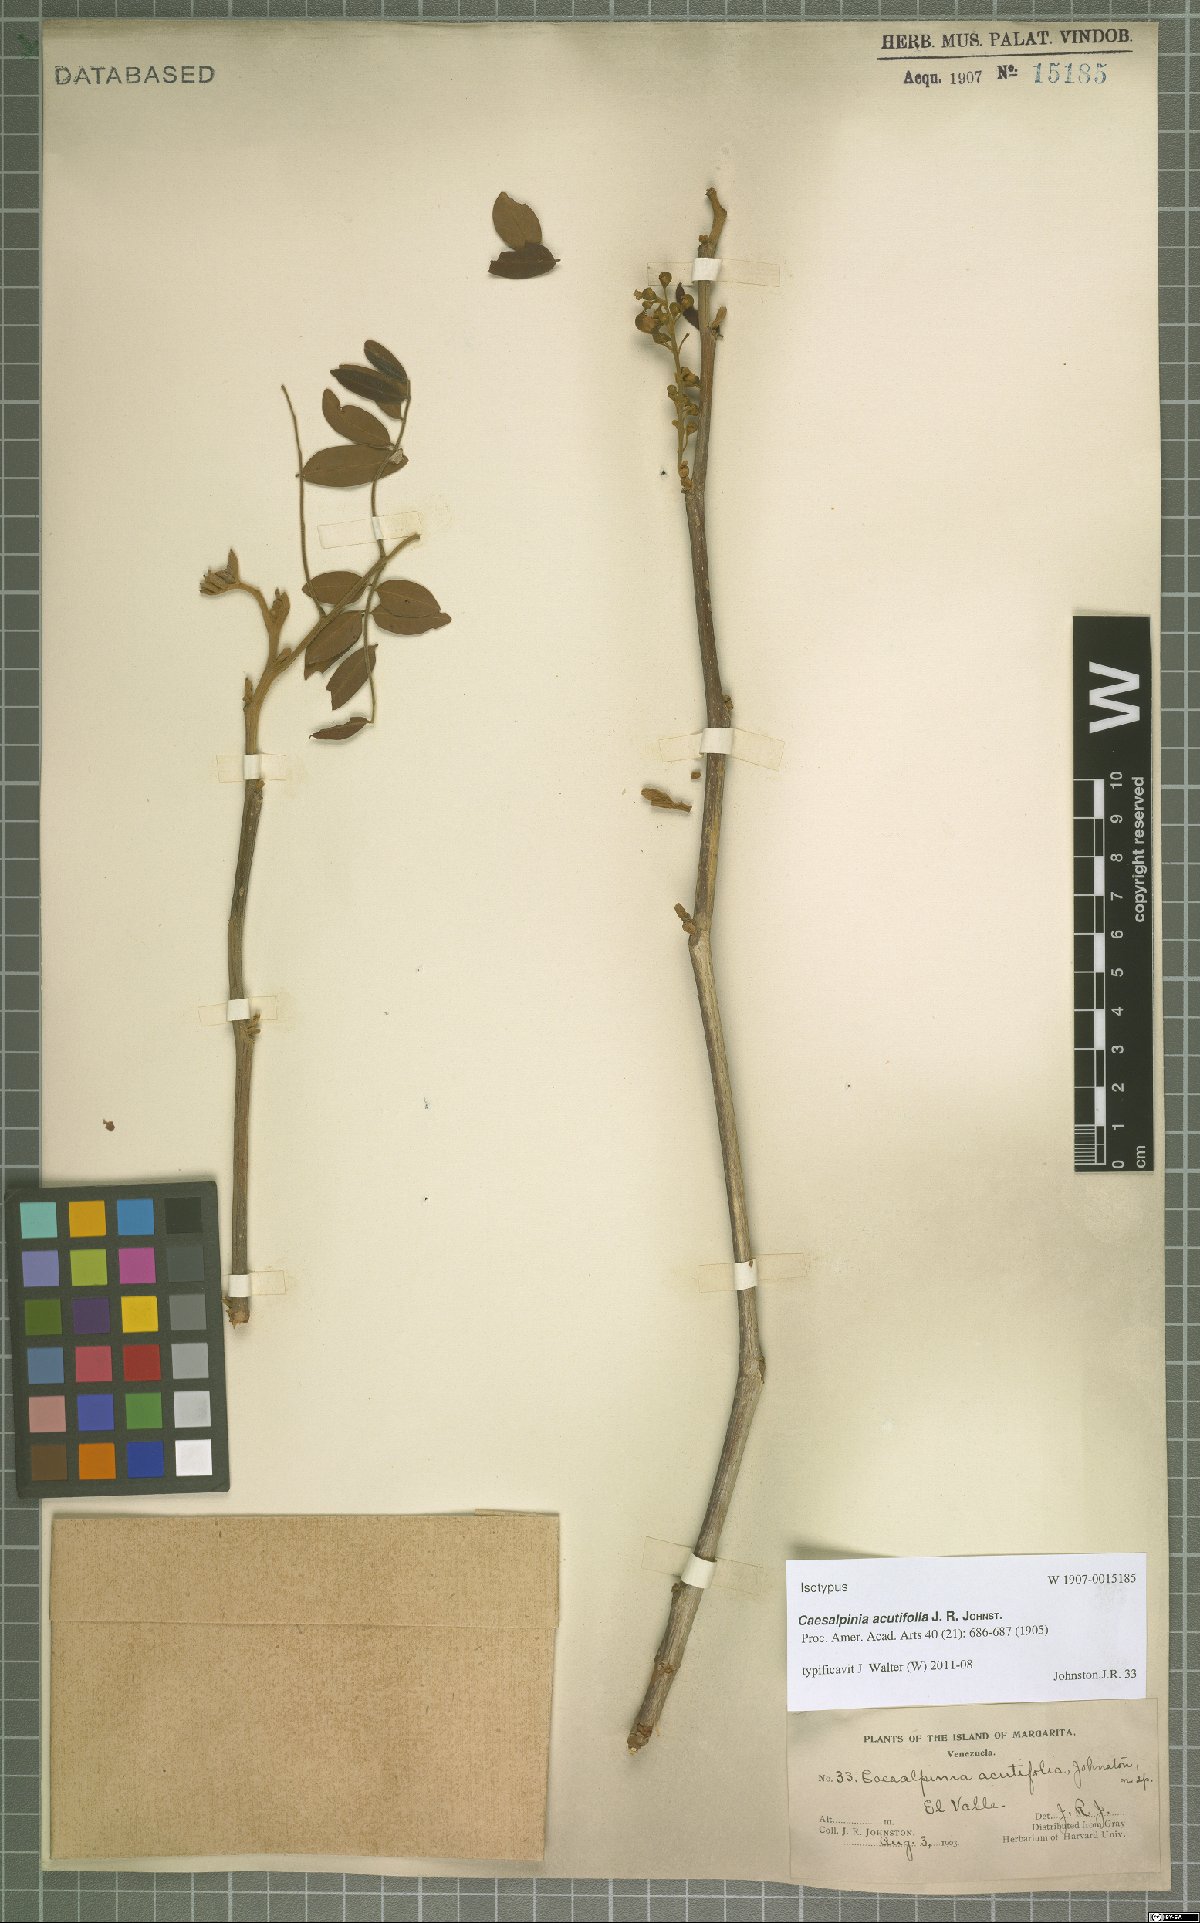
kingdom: Plantae
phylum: Tracheophyta
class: Magnoliopsida
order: Fabales
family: Fabaceae
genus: Coulteria
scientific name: Coulteria mollis
